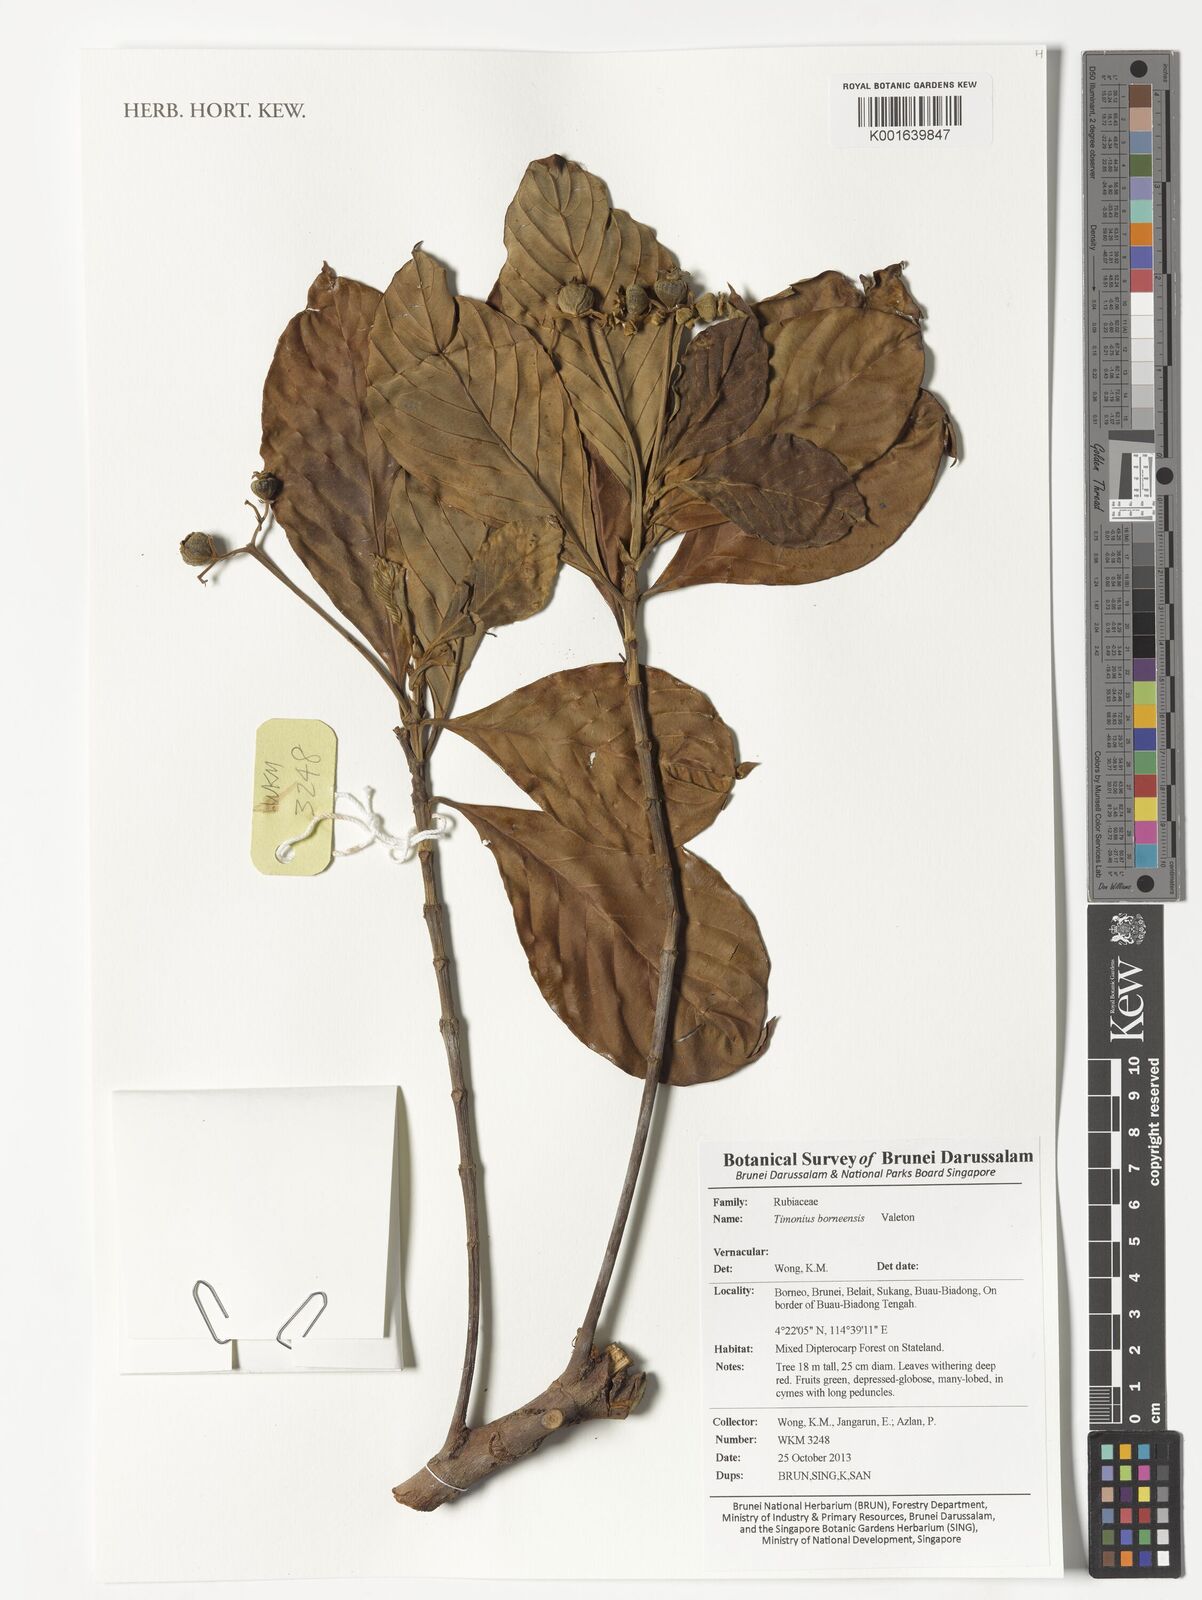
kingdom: Plantae
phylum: Tracheophyta
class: Magnoliopsida
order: Gentianales
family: Rubiaceae
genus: Timonius
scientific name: Timonius borneensis
